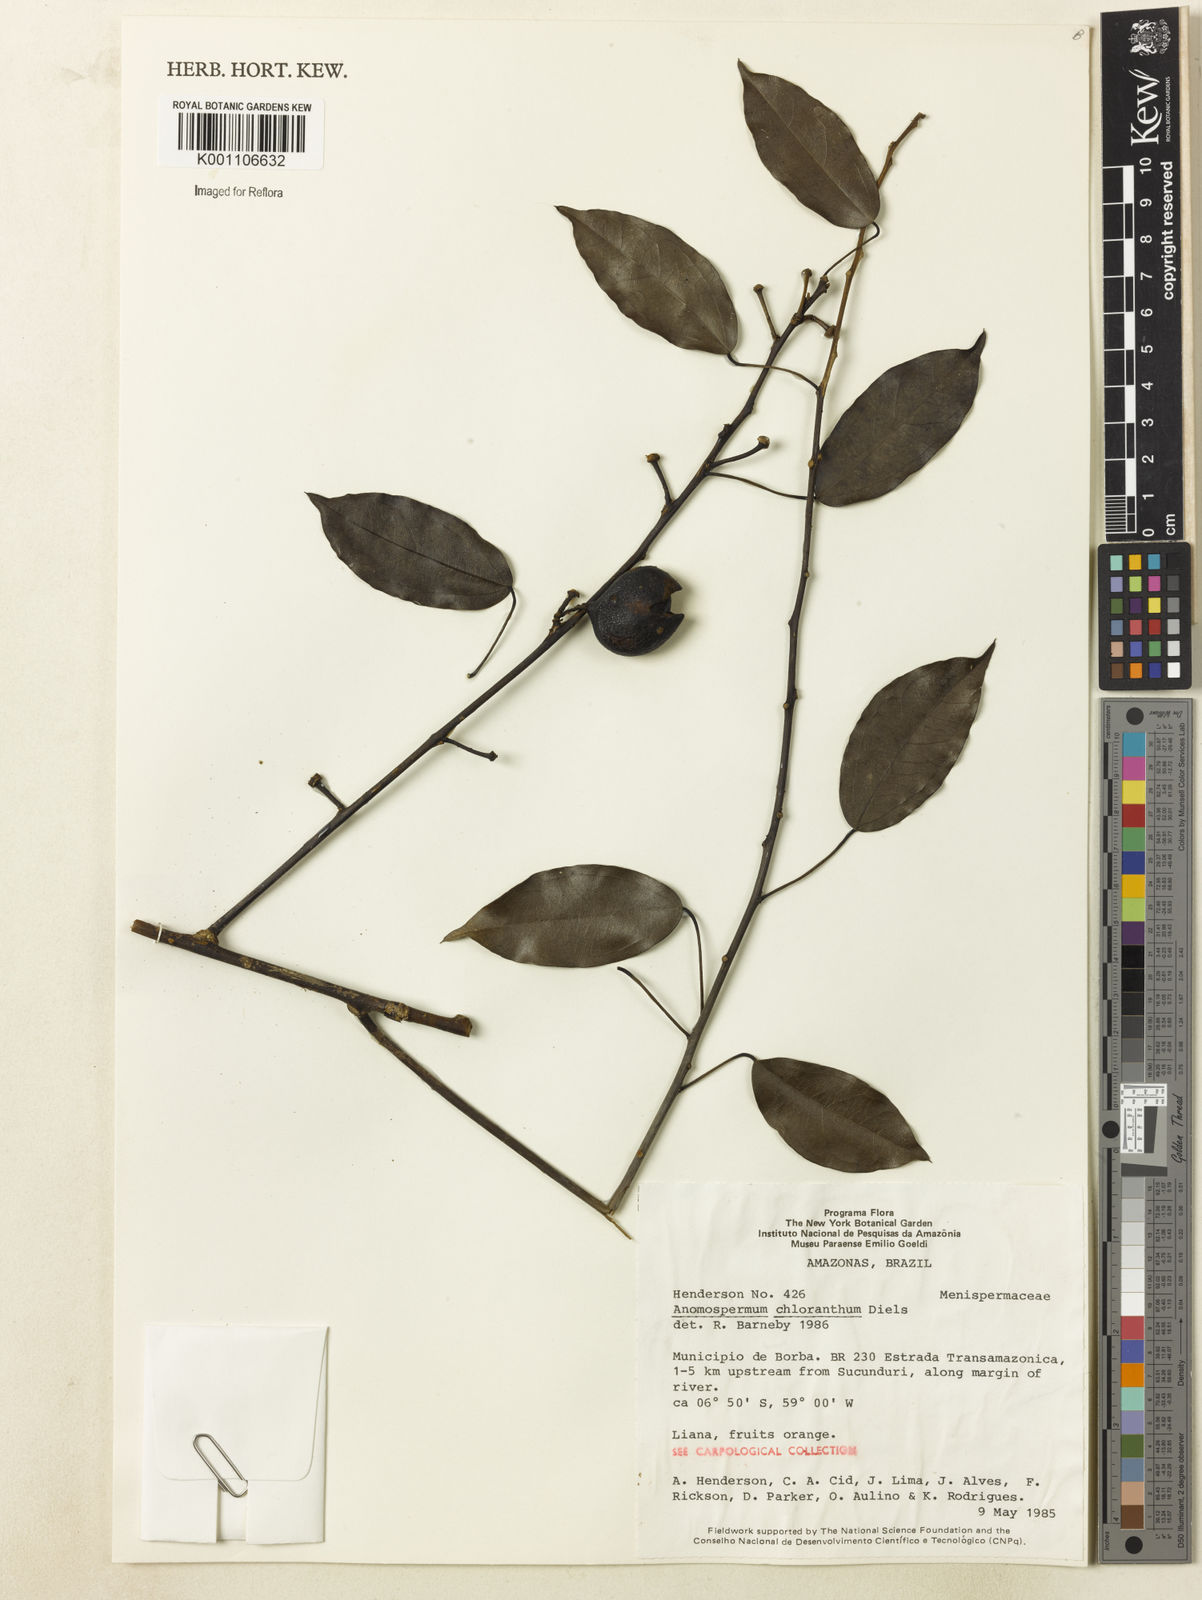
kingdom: Plantae
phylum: Tracheophyta
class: Magnoliopsida
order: Ranunculales
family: Menispermaceae
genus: Anomospermum
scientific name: Anomospermum chloranthum
